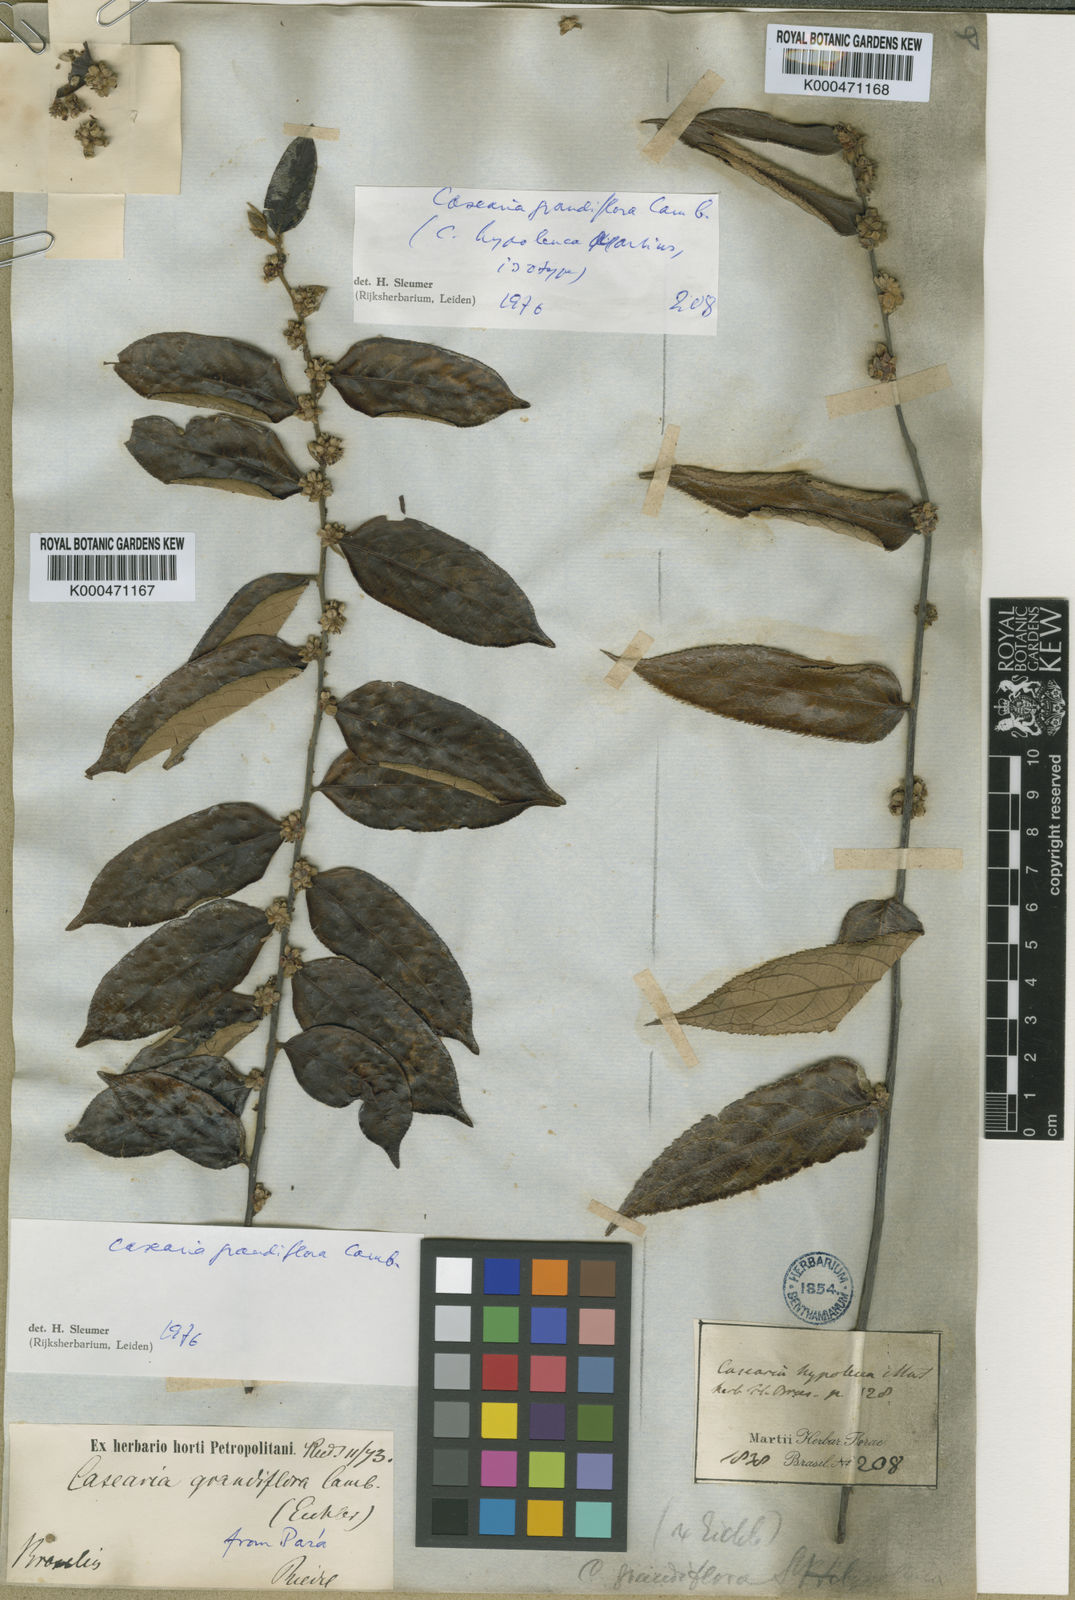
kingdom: Plantae
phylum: Tracheophyta
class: Magnoliopsida
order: Malpighiales
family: Salicaceae
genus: Casearia
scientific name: Casearia grandiflora
